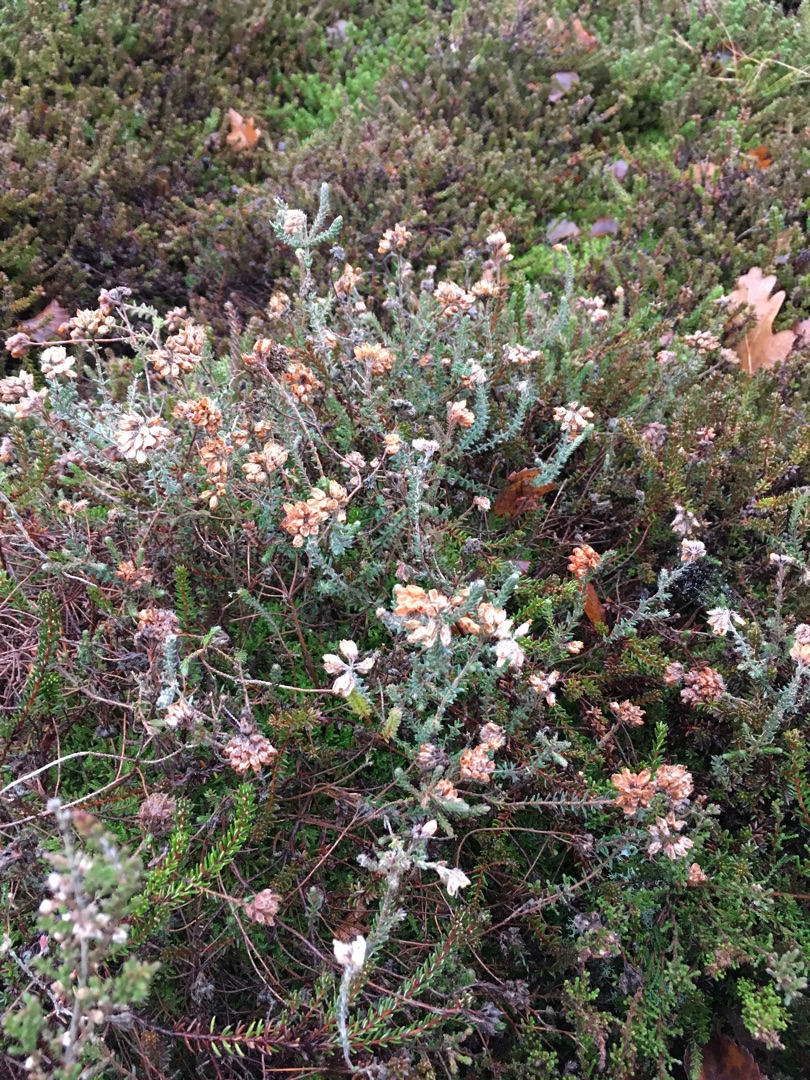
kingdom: Plantae
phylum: Tracheophyta
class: Magnoliopsida
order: Ericales
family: Ericaceae
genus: Erica
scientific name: Erica tetralix
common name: Klokkelyng
